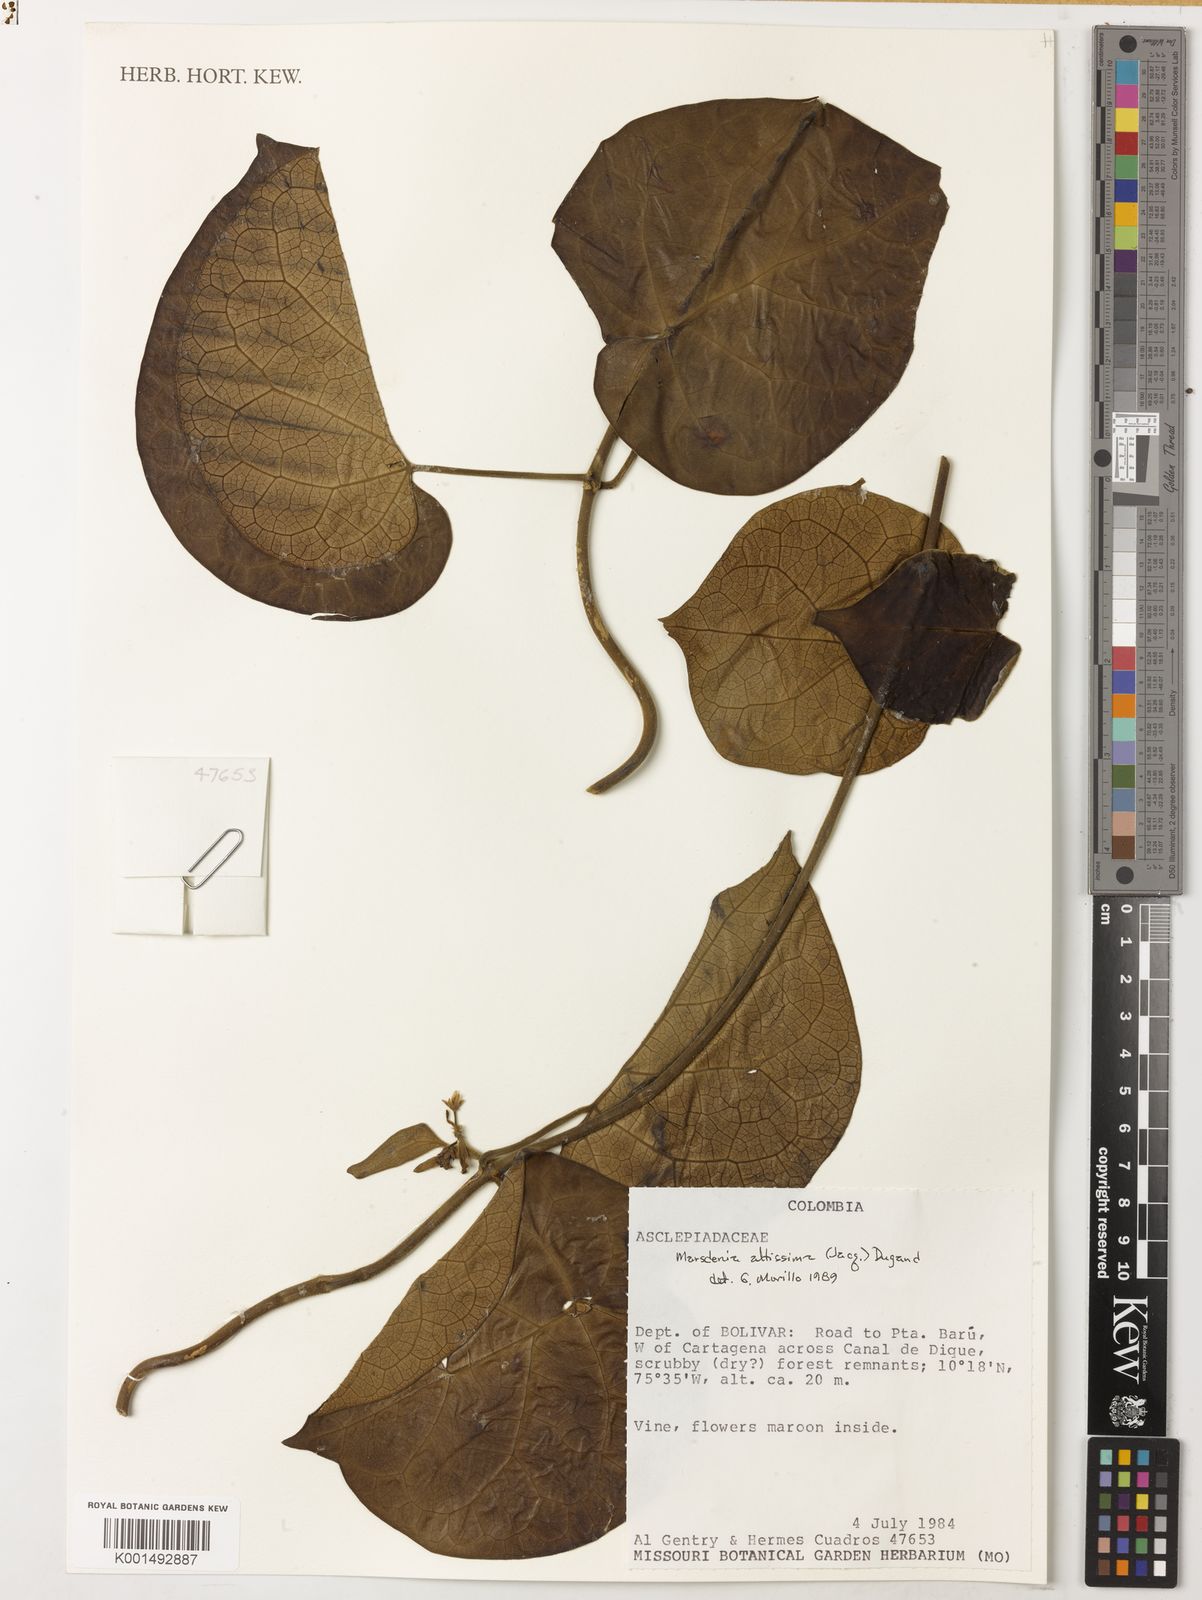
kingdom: Plantae
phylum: Tracheophyta
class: Magnoliopsida
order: Gentianales
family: Apocynaceae
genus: Ruehssia
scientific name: Ruehssia altissima
